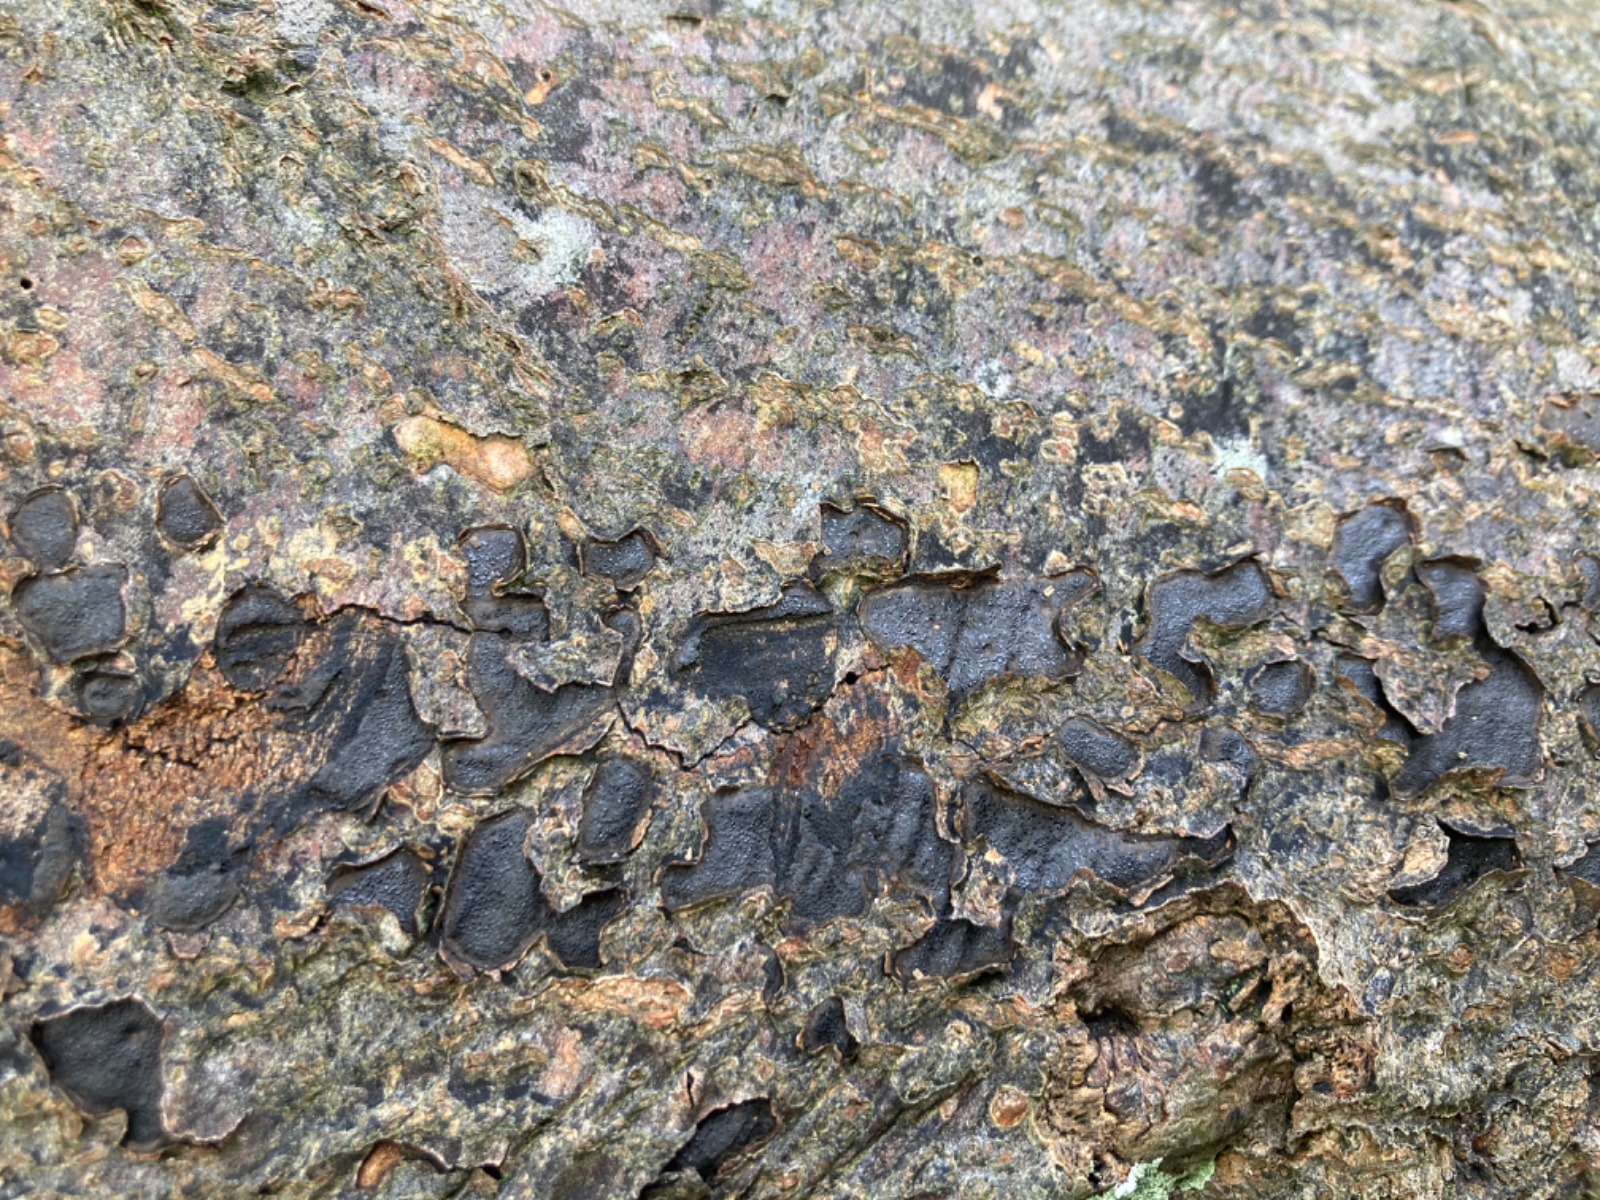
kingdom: Fungi
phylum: Ascomycota
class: Sordariomycetes
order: Xylariales
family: Graphostromataceae
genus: Biscogniauxia
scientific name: Biscogniauxia nummularia
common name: bøge-kulskive
